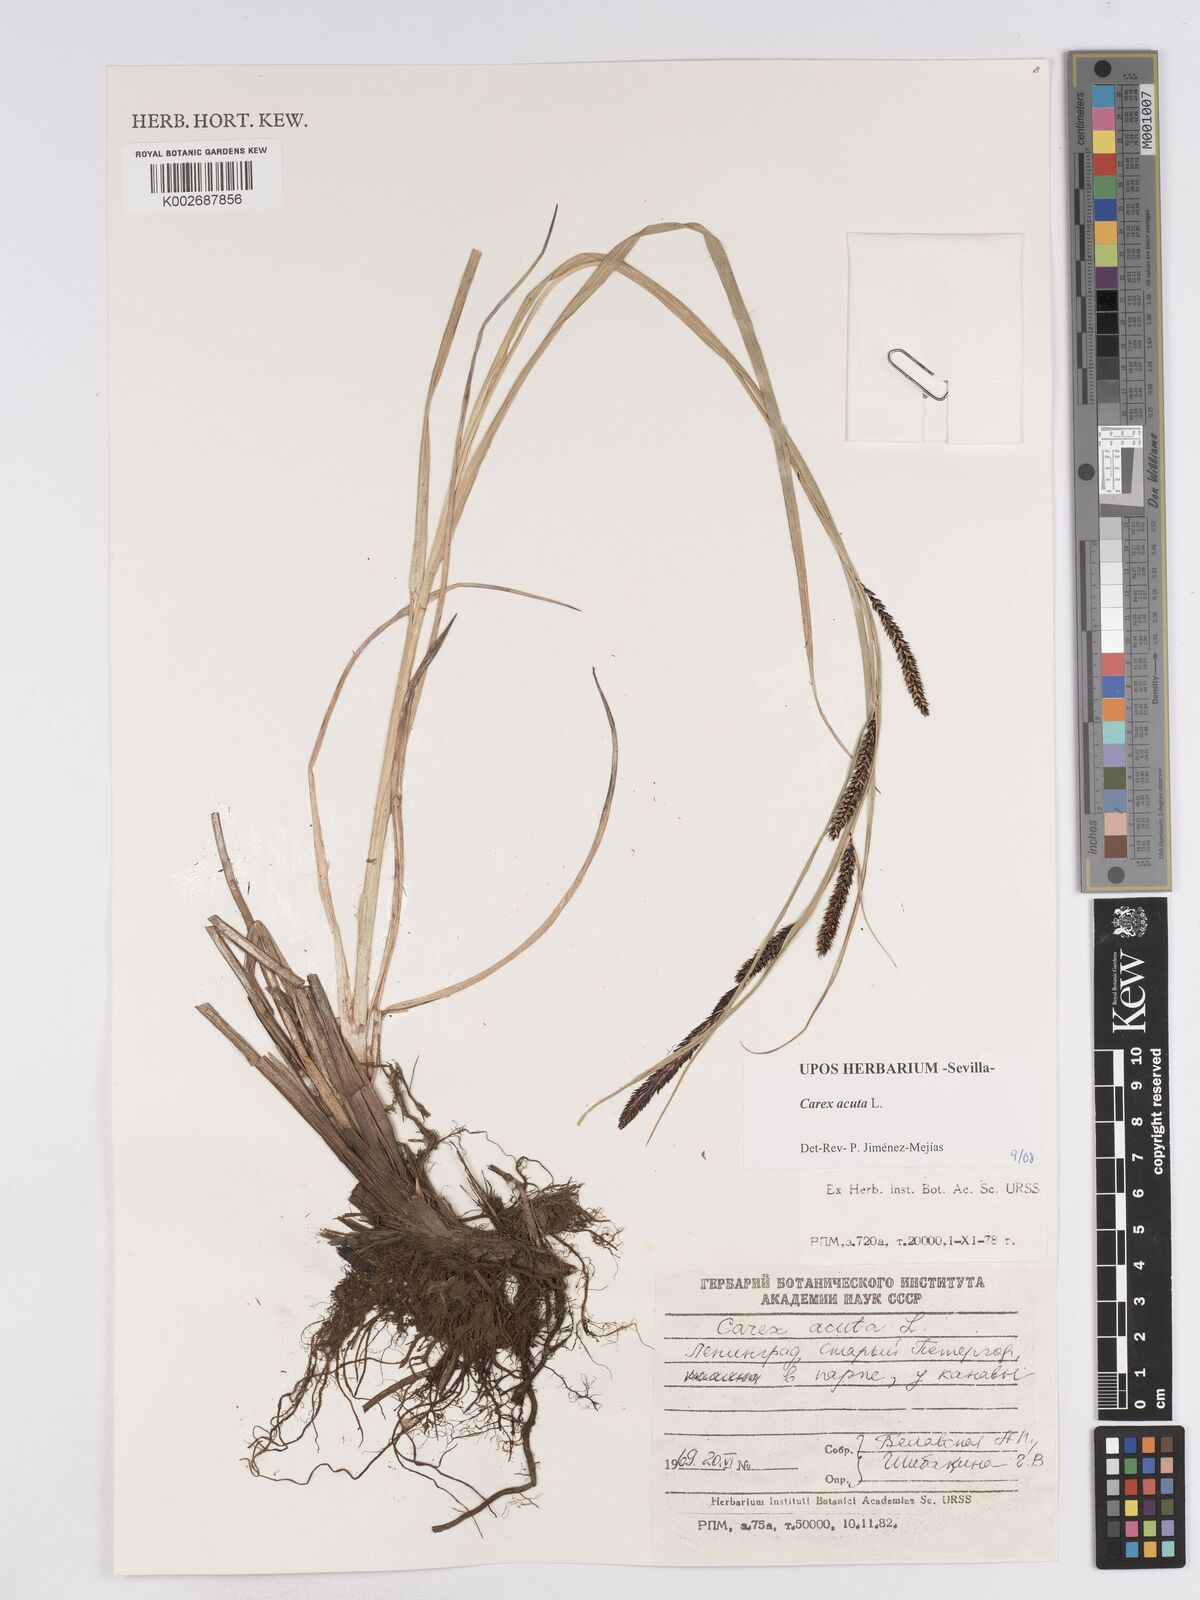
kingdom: Plantae
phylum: Tracheophyta
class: Liliopsida
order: Poales
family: Cyperaceae
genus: Carex
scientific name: Carex acuta
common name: Slender tufted-sedge
